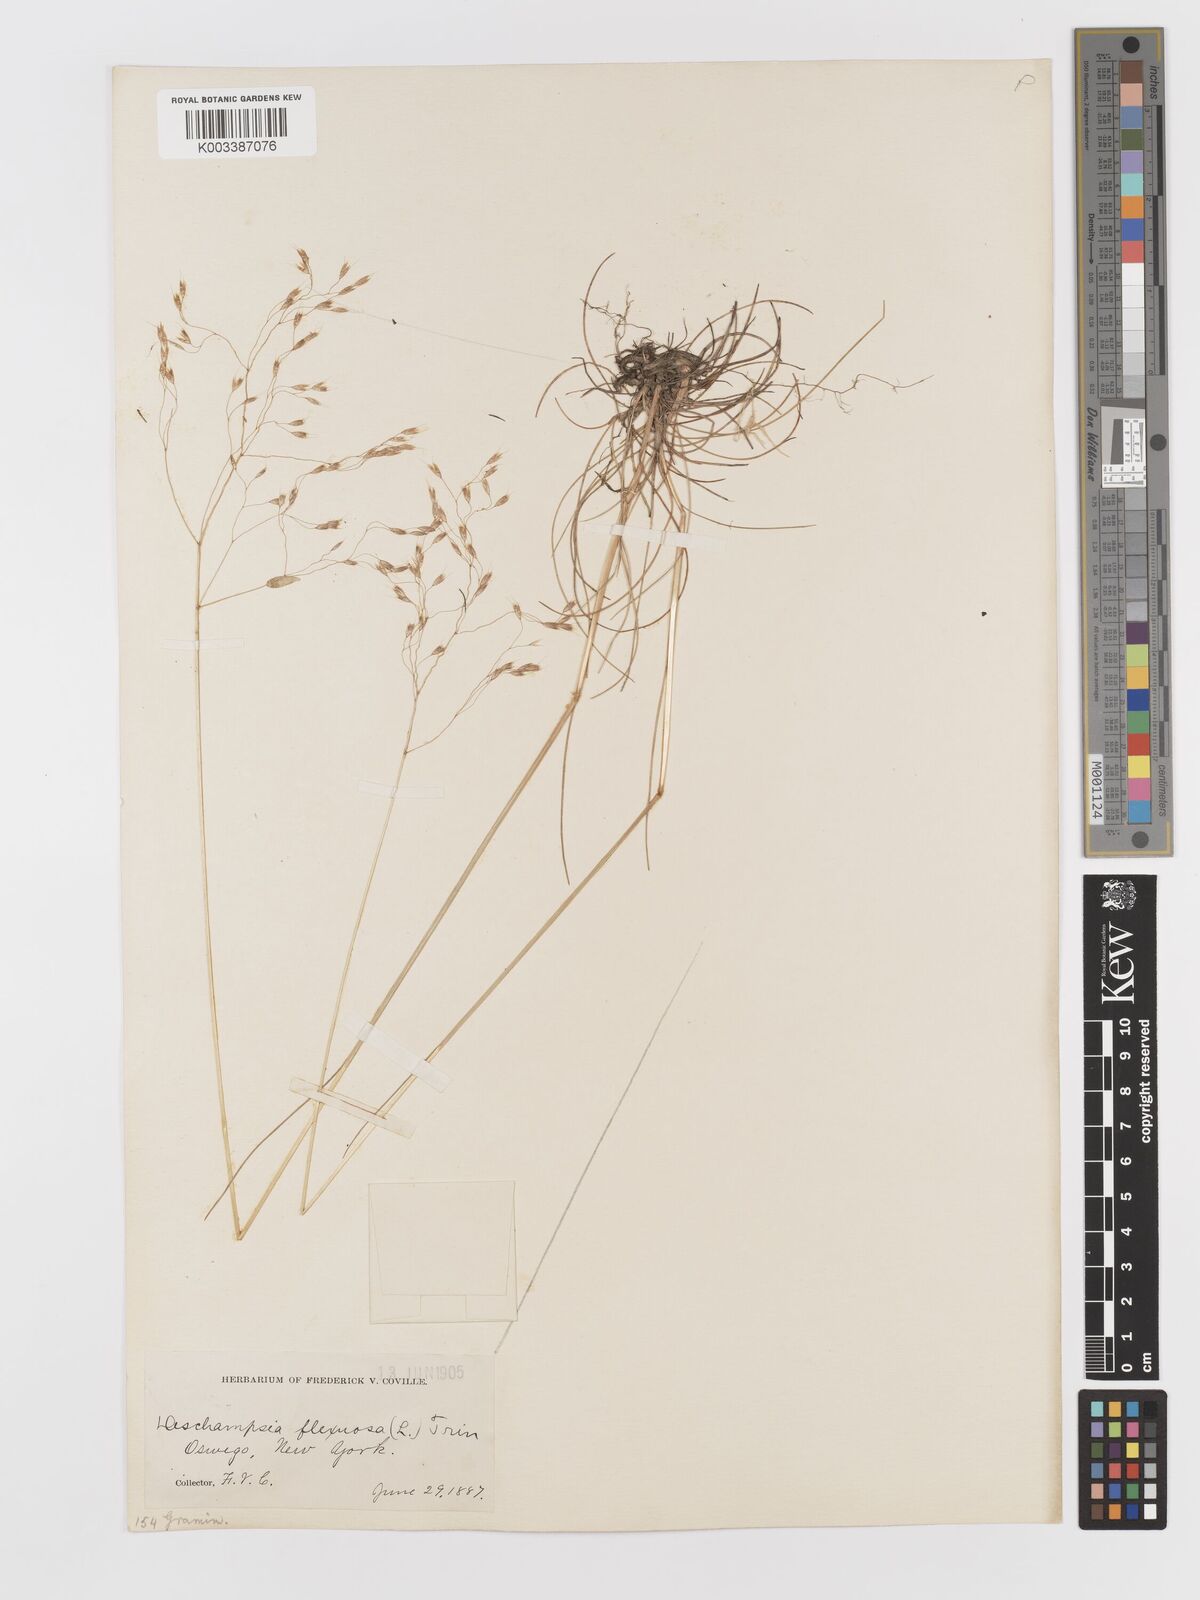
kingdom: Plantae
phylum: Tracheophyta
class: Liliopsida
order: Poales
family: Poaceae
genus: Avenella
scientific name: Avenella flexuosa
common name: Wavy hairgrass
